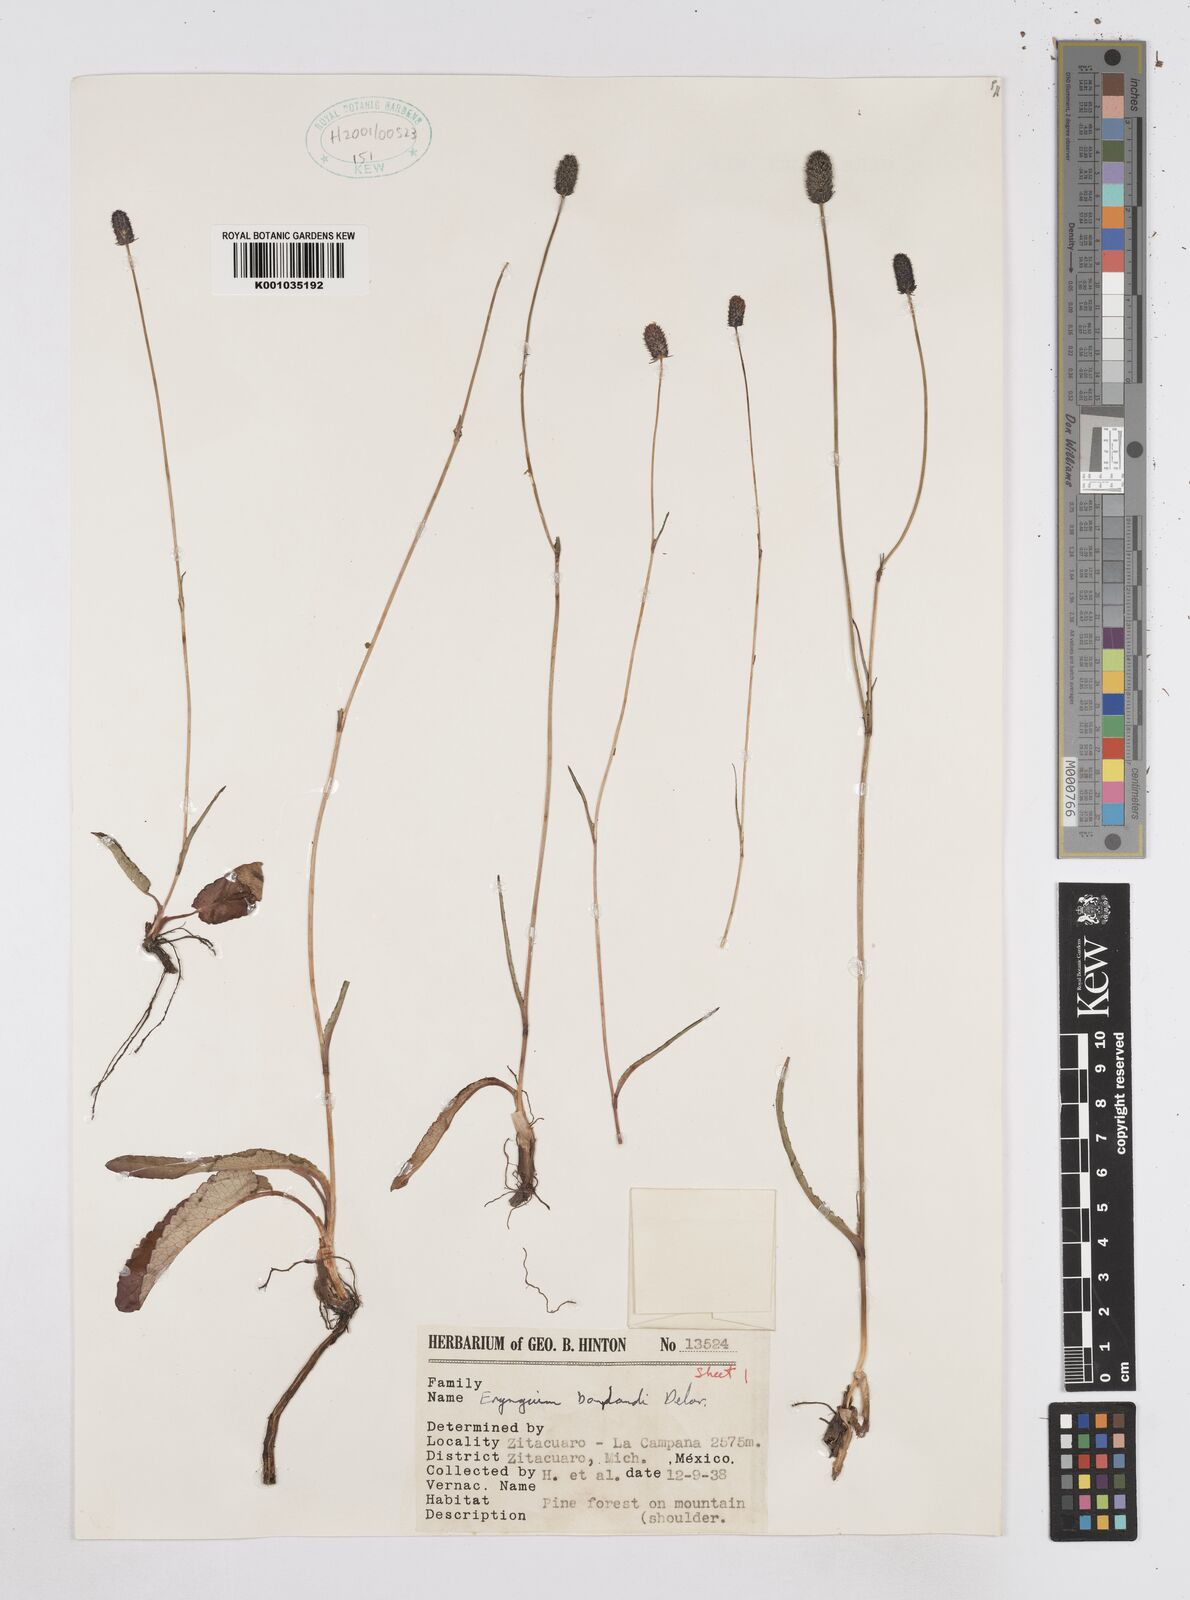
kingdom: Plantae
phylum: Tracheophyta
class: Magnoliopsida
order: Apiales
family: Apiaceae
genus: Eryngium
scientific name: Eryngium bonplandii
